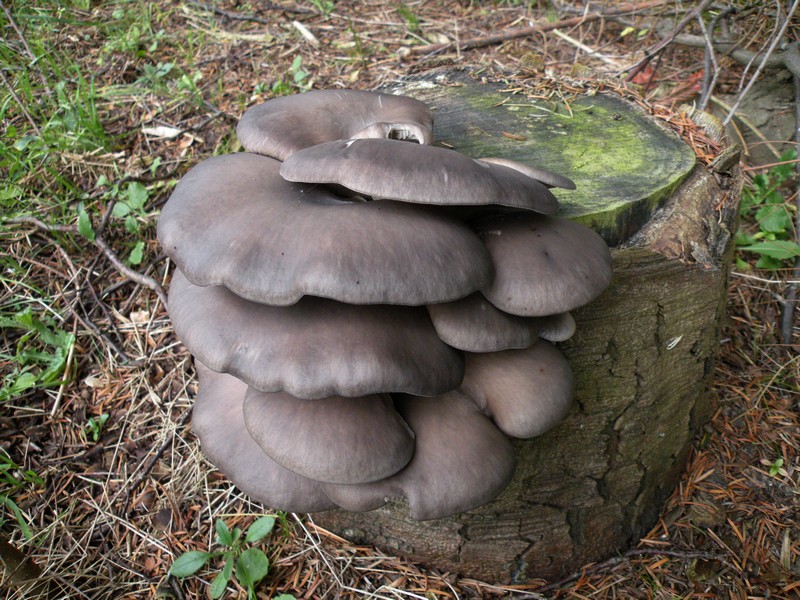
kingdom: Fungi
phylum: Basidiomycota
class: Agaricomycetes
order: Agaricales
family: Pleurotaceae
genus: Pleurotus
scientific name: Pleurotus ostreatus
